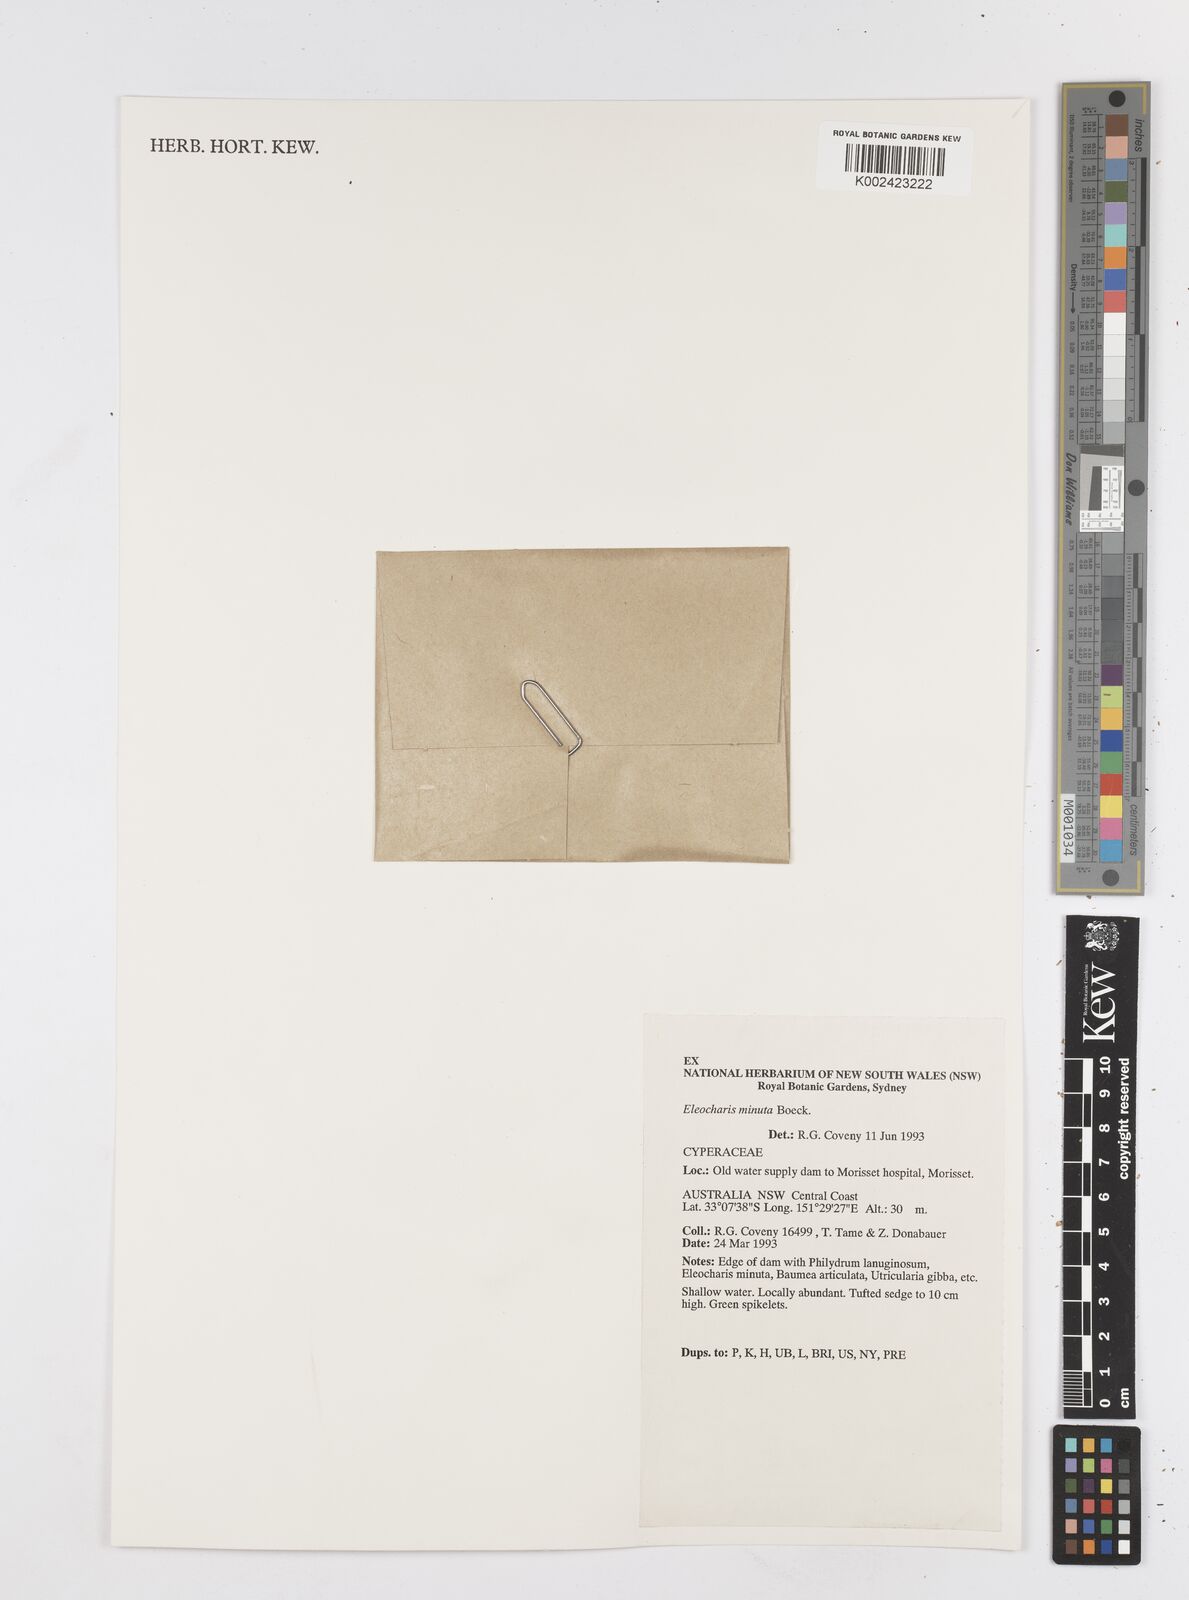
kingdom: Plantae
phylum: Tracheophyta
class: Liliopsida
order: Poales
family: Cyperaceae
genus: Eleocharis
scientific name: Eleocharis minuta
